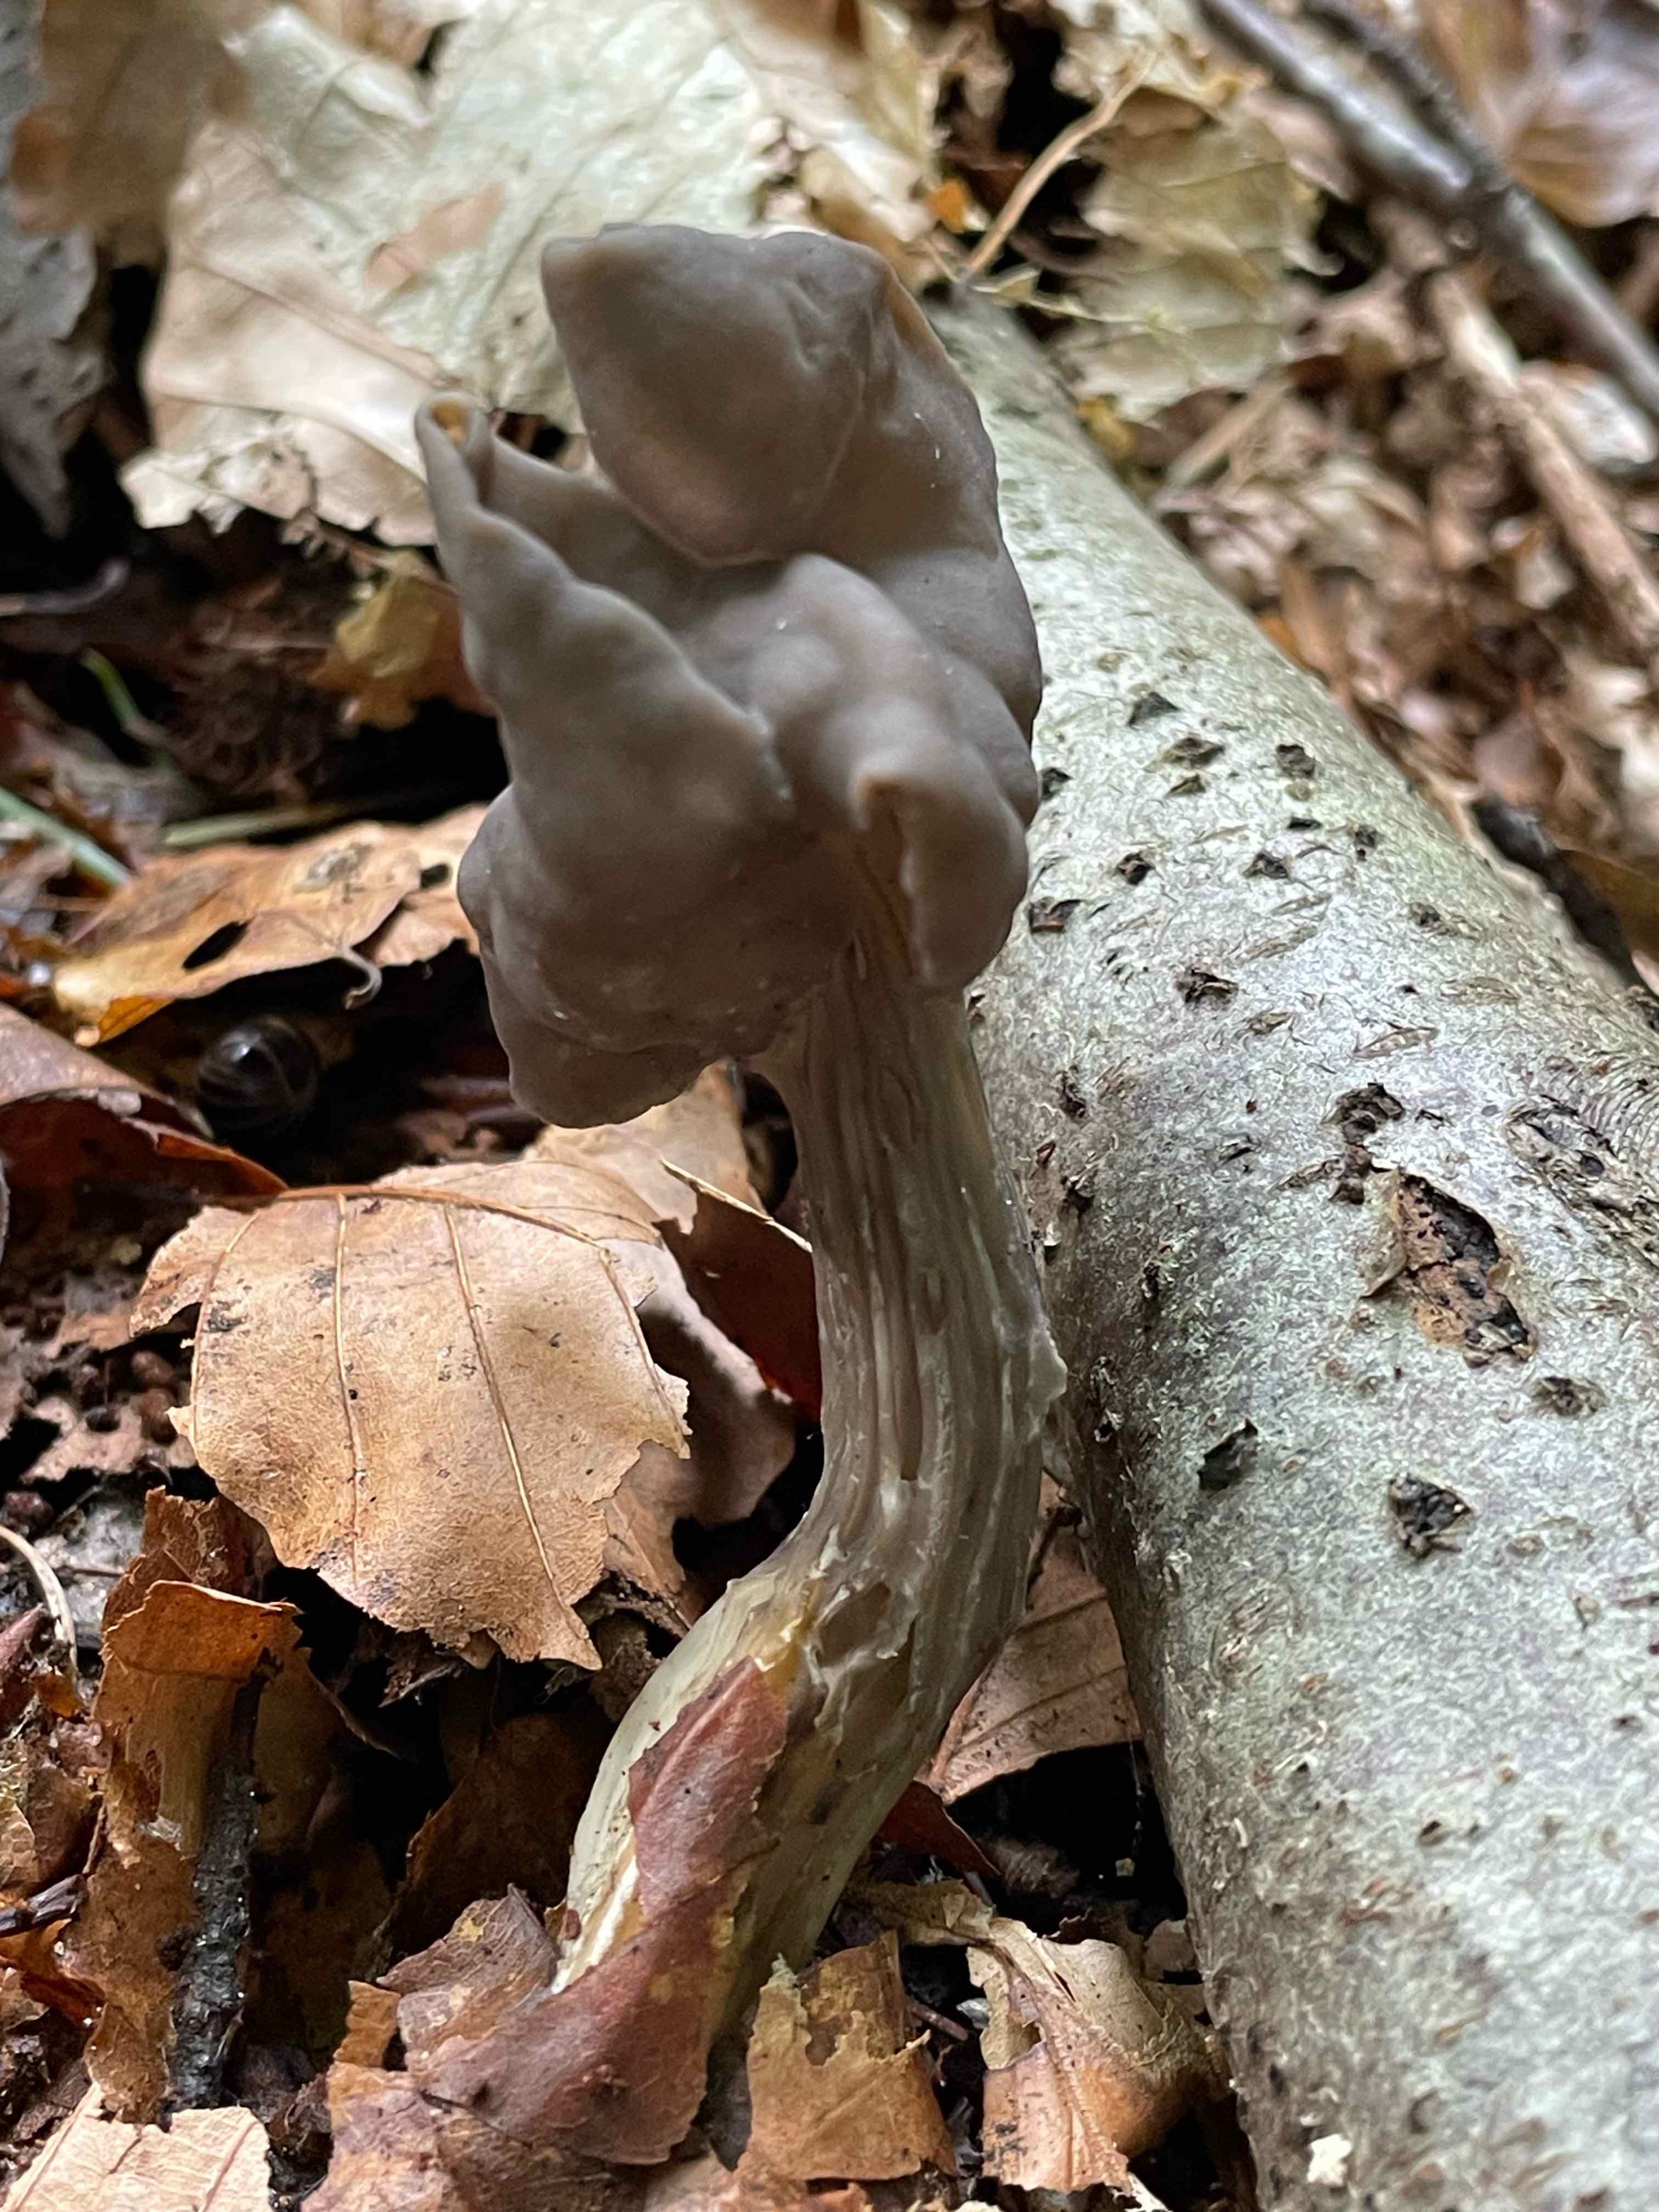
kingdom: Fungi
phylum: Ascomycota
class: Pezizomycetes
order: Pezizales
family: Helvellaceae
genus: Helvella
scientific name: Helvella lacunosa
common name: grubet foldhat
